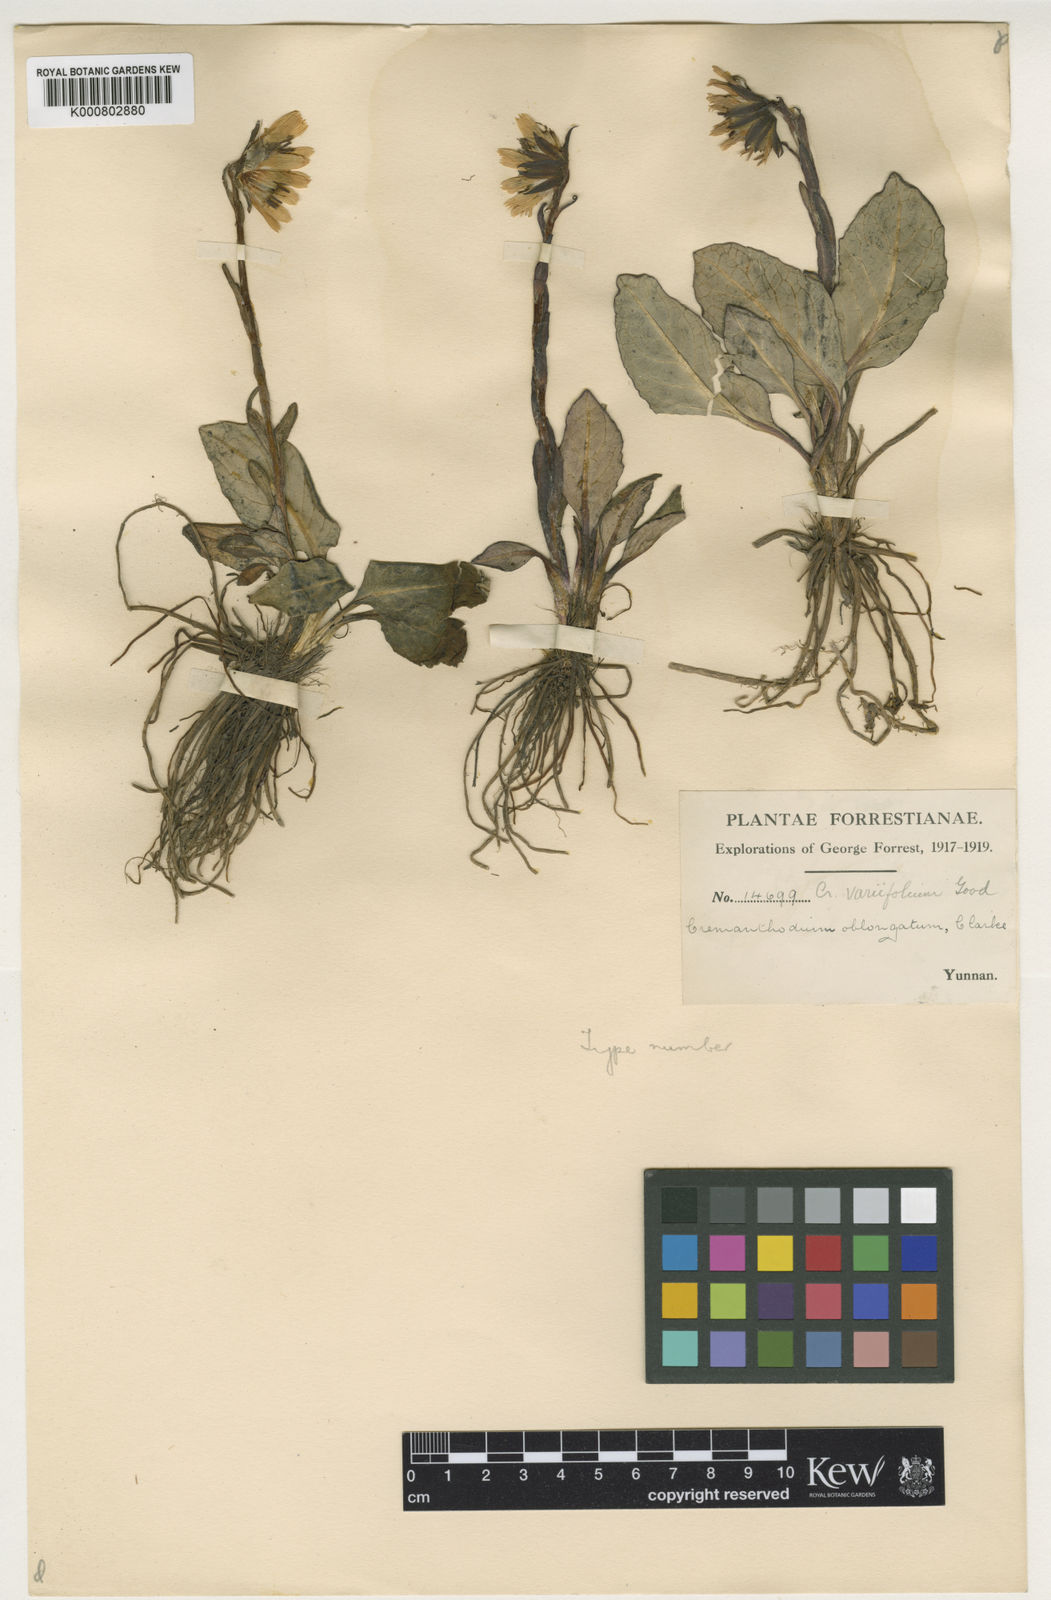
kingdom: Plantae
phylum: Tracheophyta
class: Magnoliopsida
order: Asterales
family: Asteraceae
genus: Cremanthodium
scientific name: Cremanthodium variifolium
